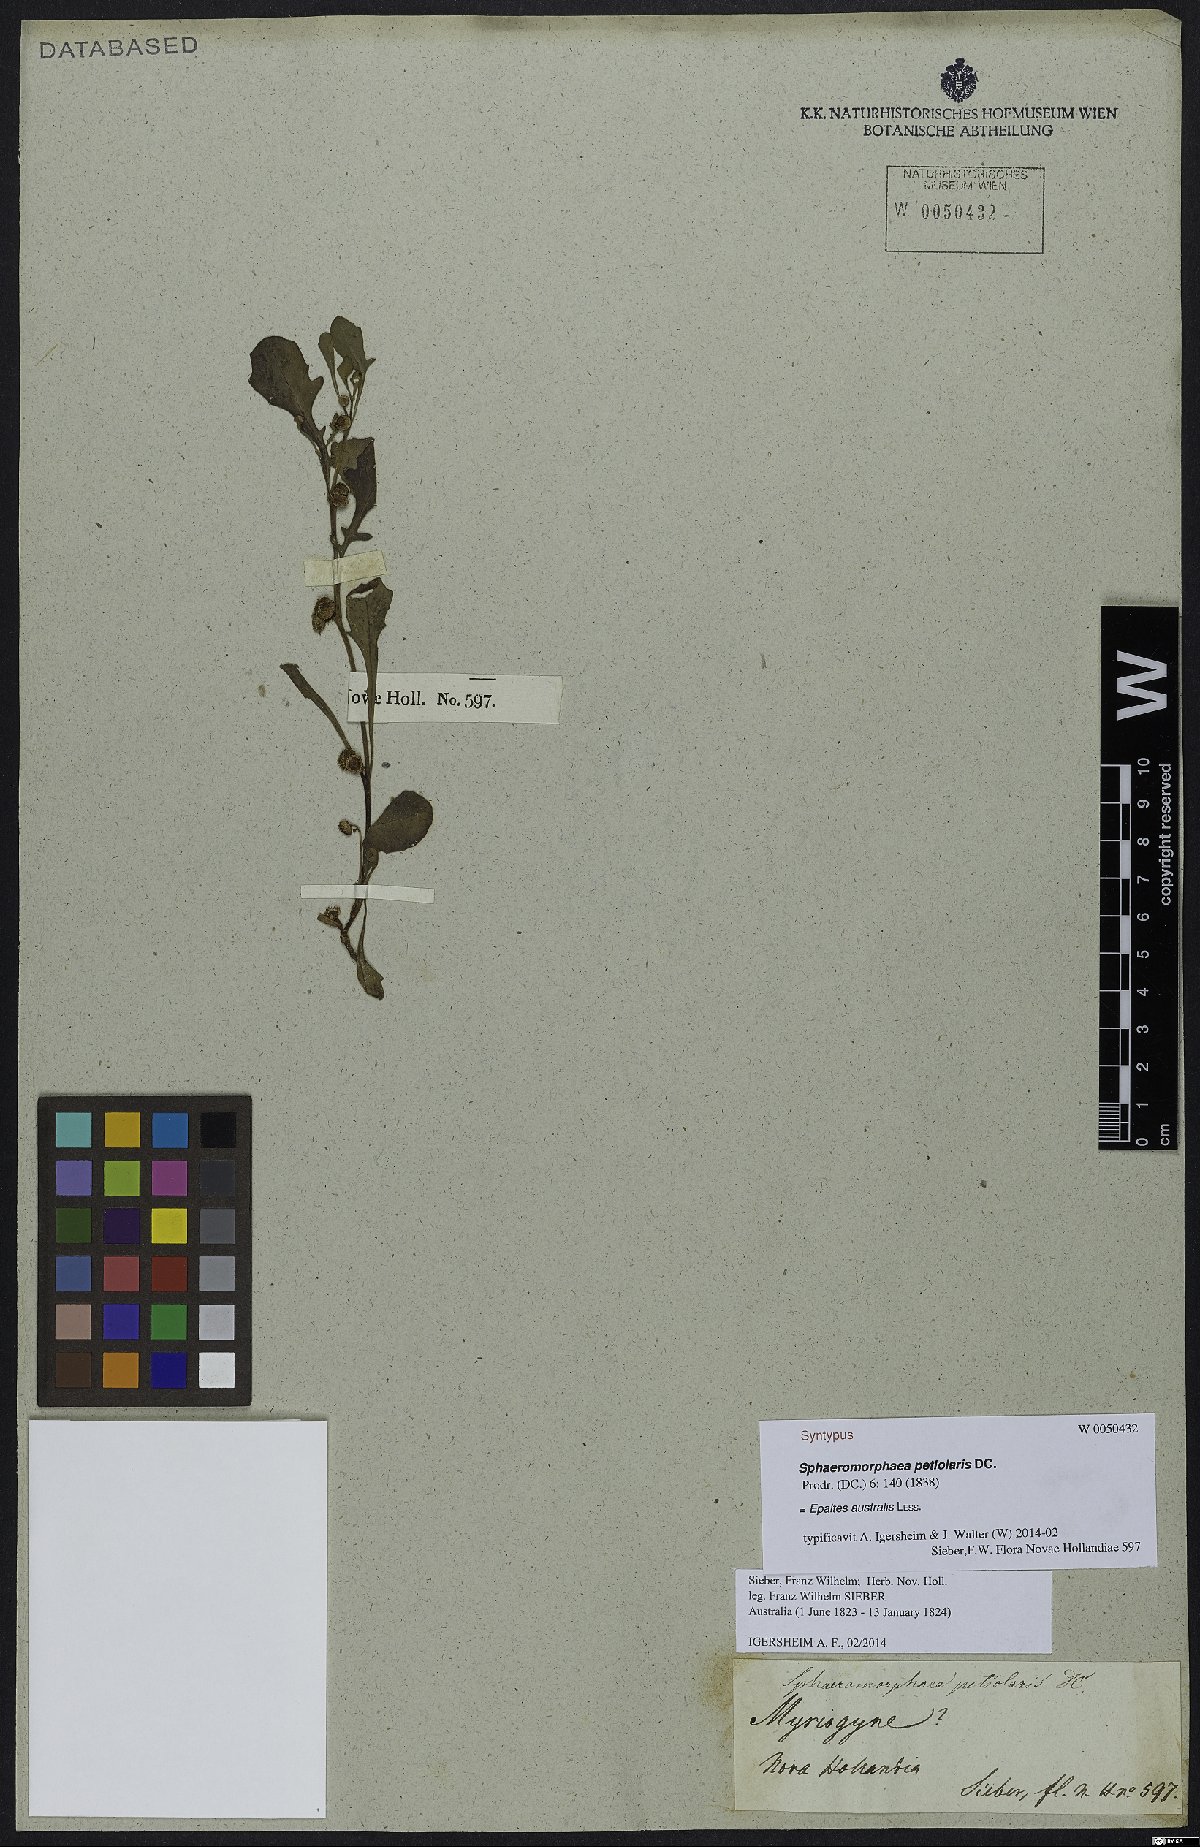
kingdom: Plantae
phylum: Tracheophyta
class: Magnoliopsida
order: Asterales
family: Asteraceae
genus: Sphaeromorphaea
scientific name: Sphaeromorphaea australis
